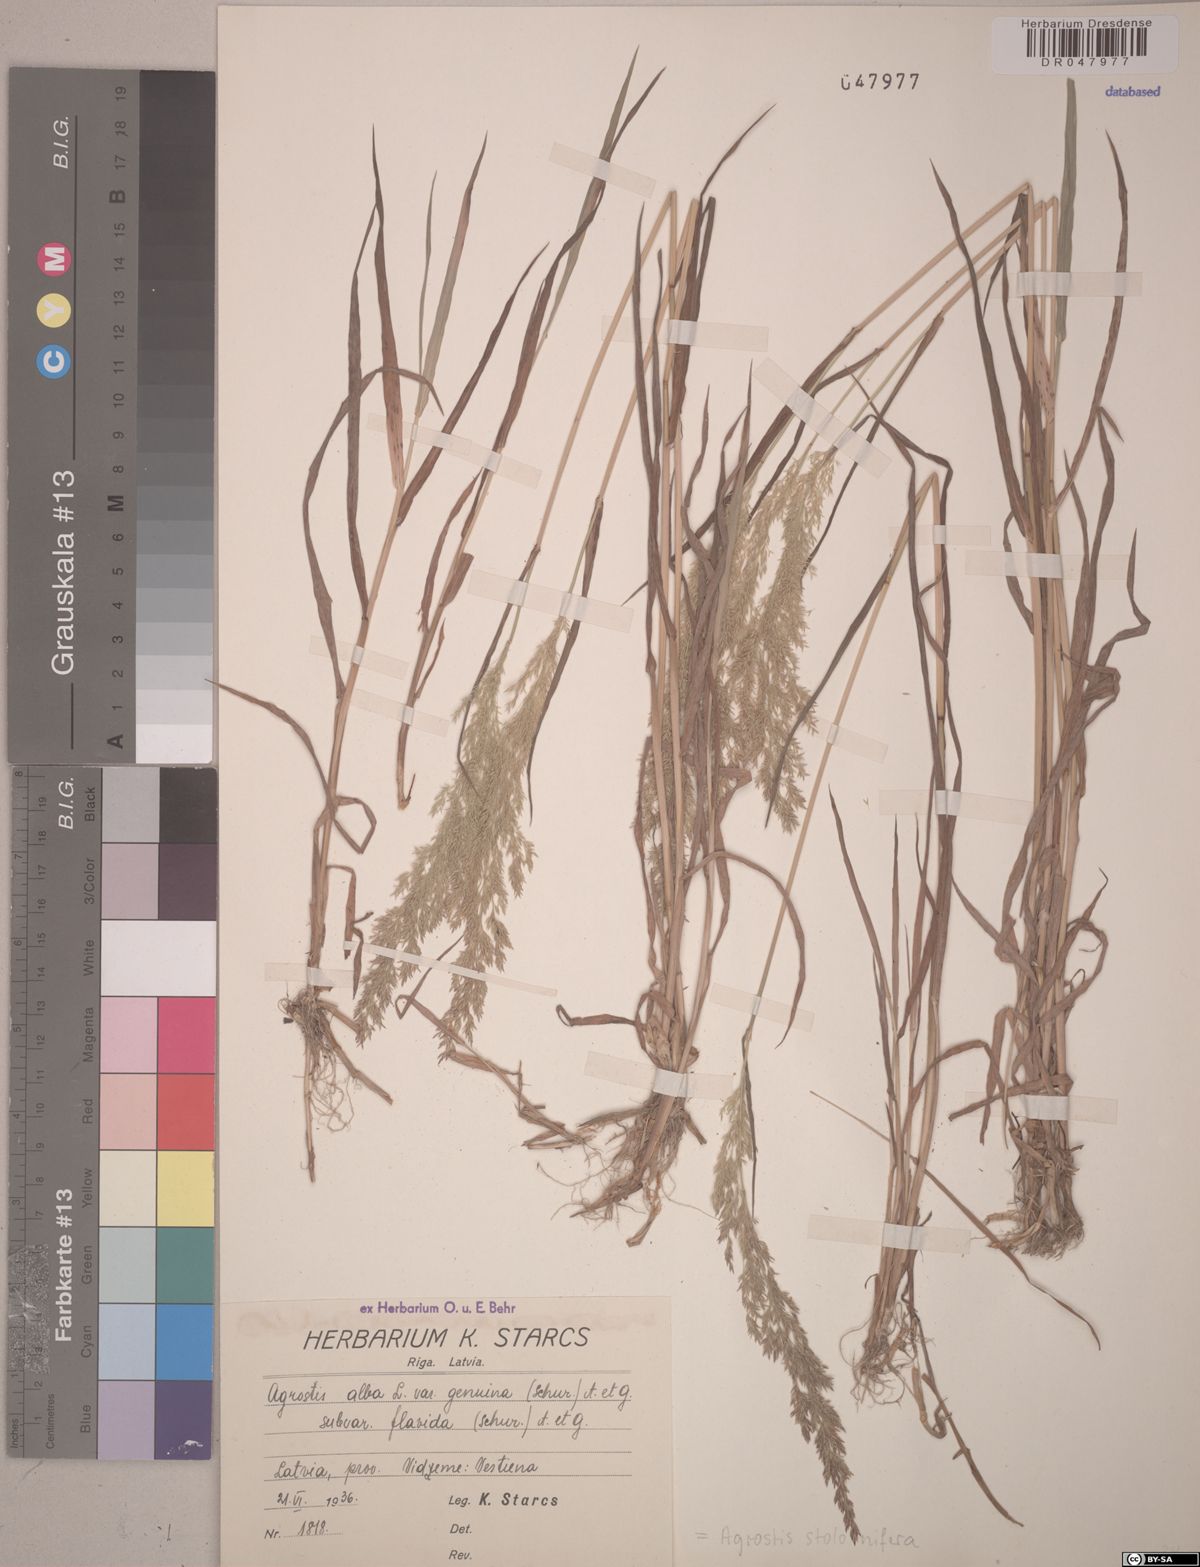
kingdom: Plantae
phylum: Tracheophyta
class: Liliopsida
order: Poales
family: Poaceae
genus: Agrostis
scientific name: Agrostis stolonifera
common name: Creeping bentgrass
